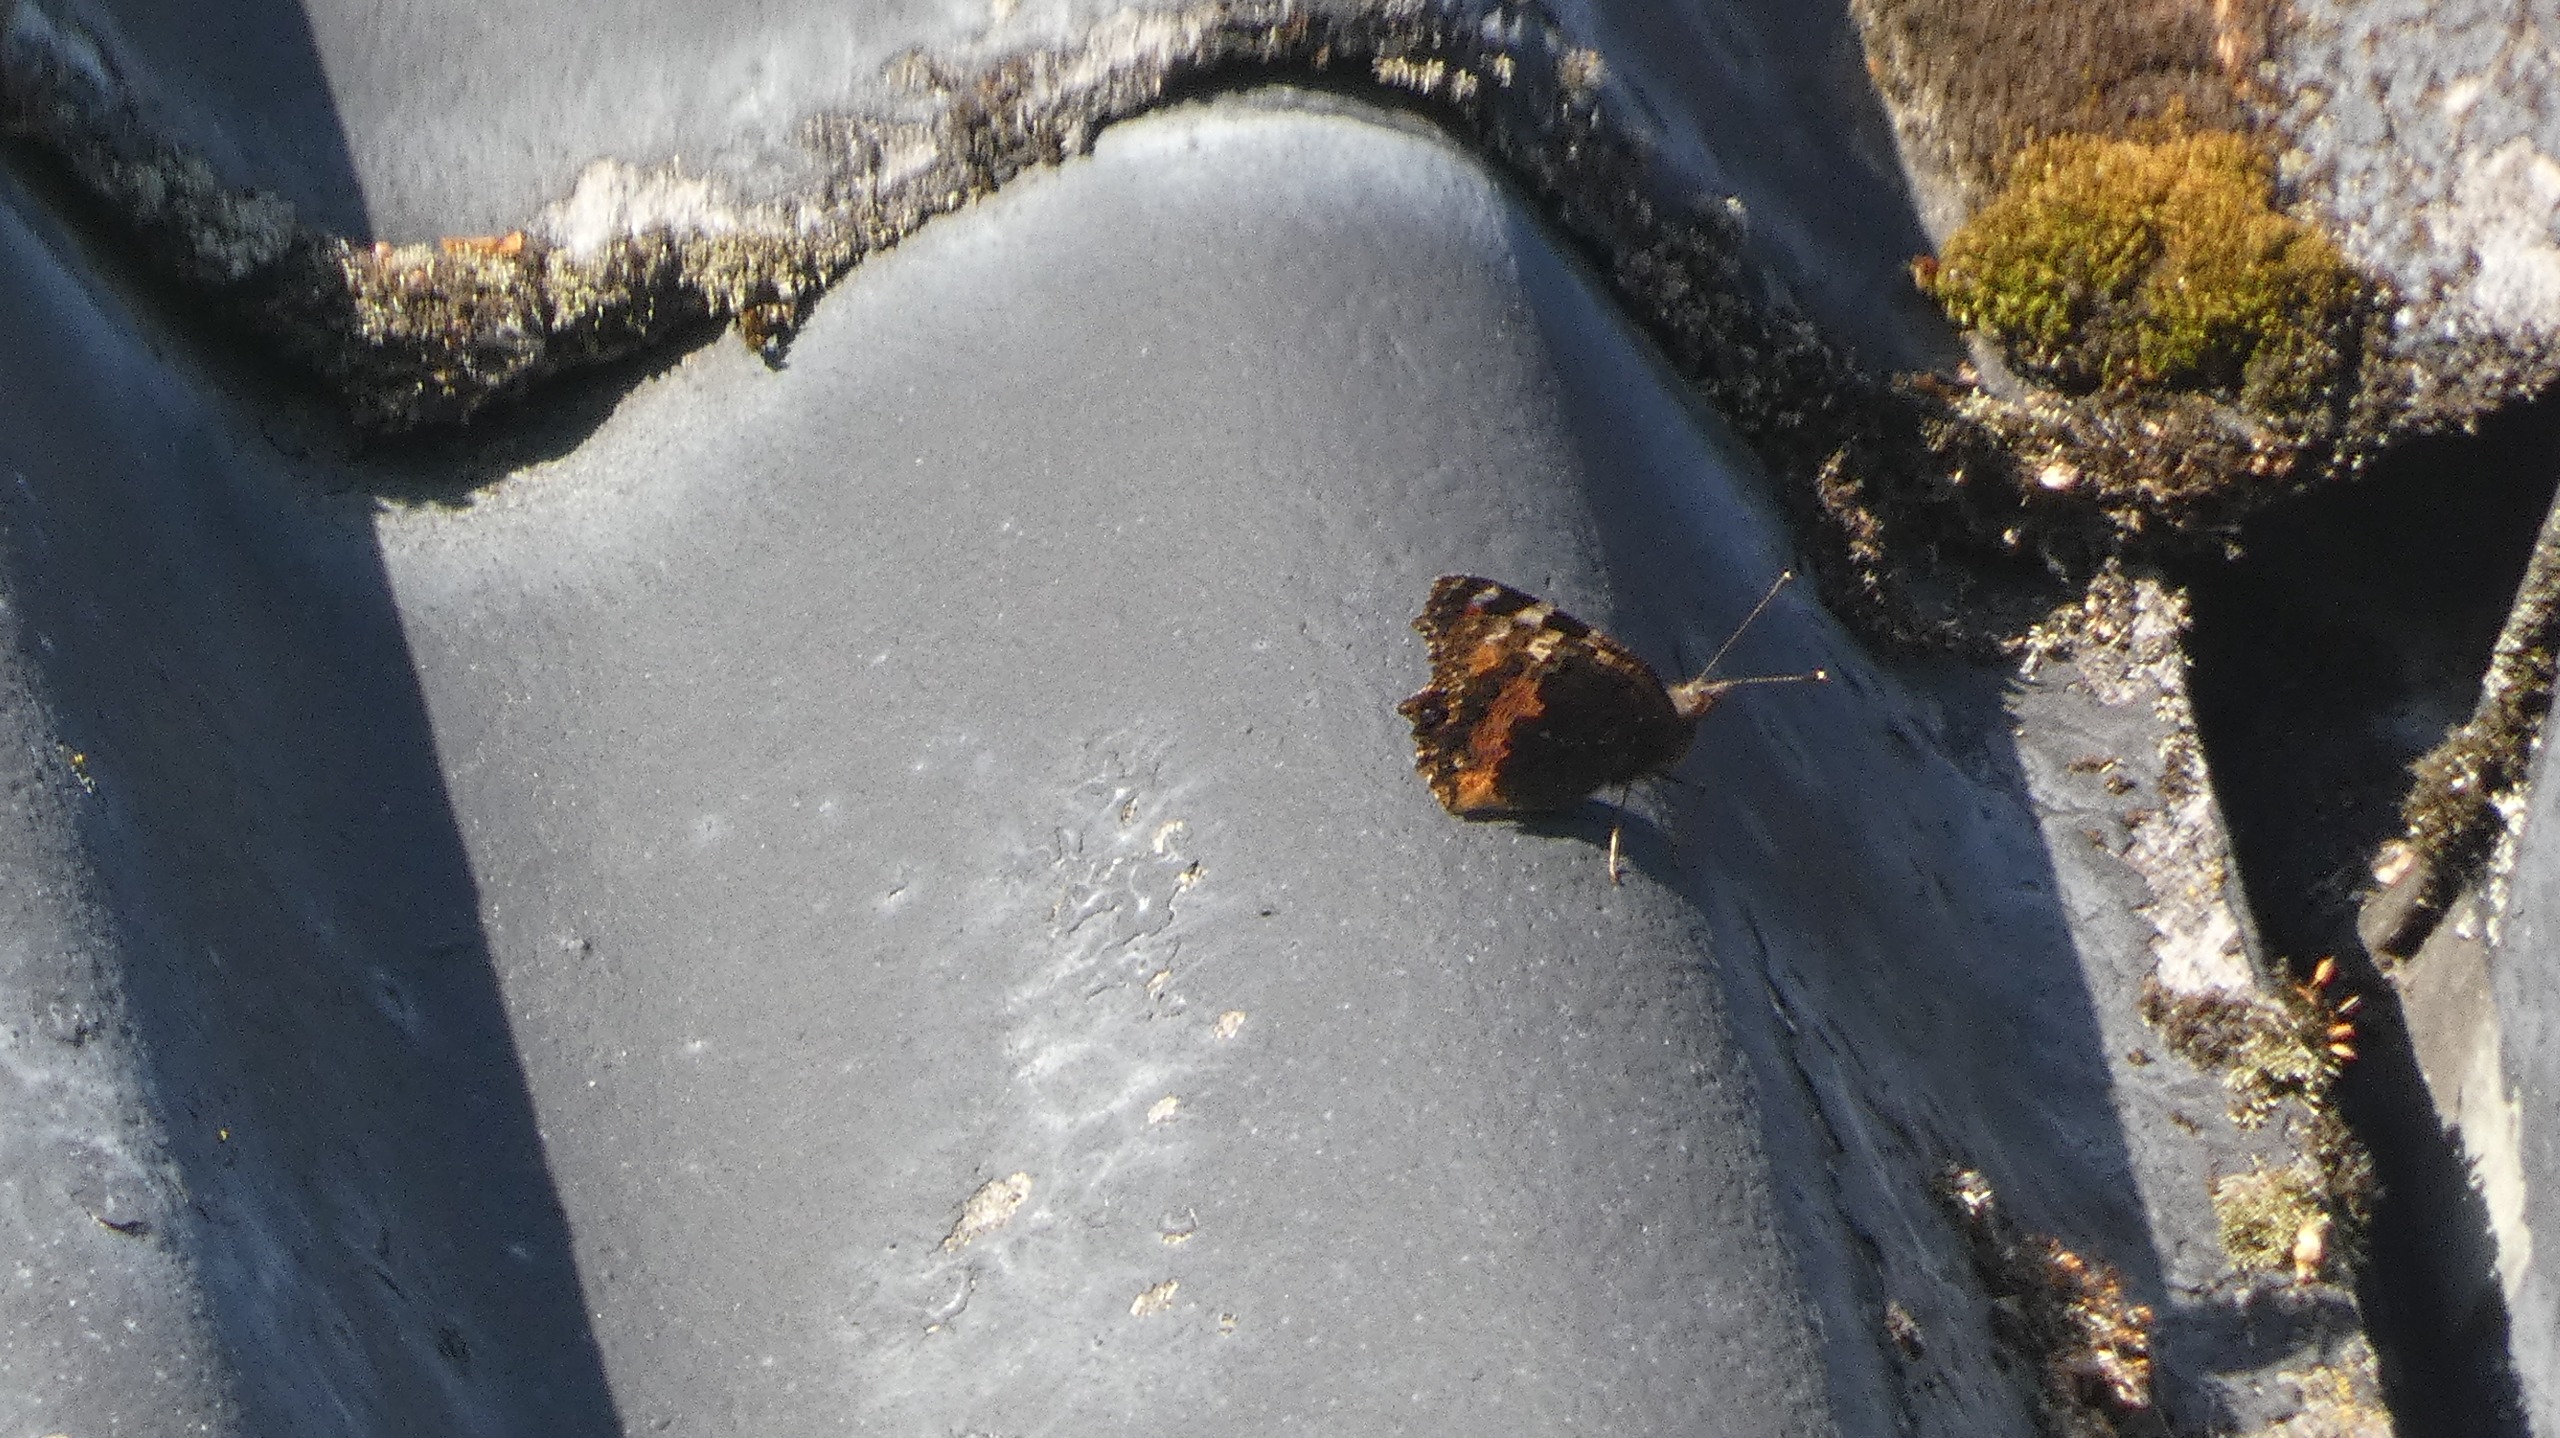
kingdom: Animalia
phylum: Arthropoda
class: Insecta
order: Lepidoptera
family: Nymphalidae
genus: Aglais
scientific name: Aglais urticae
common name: Nældens takvinge
